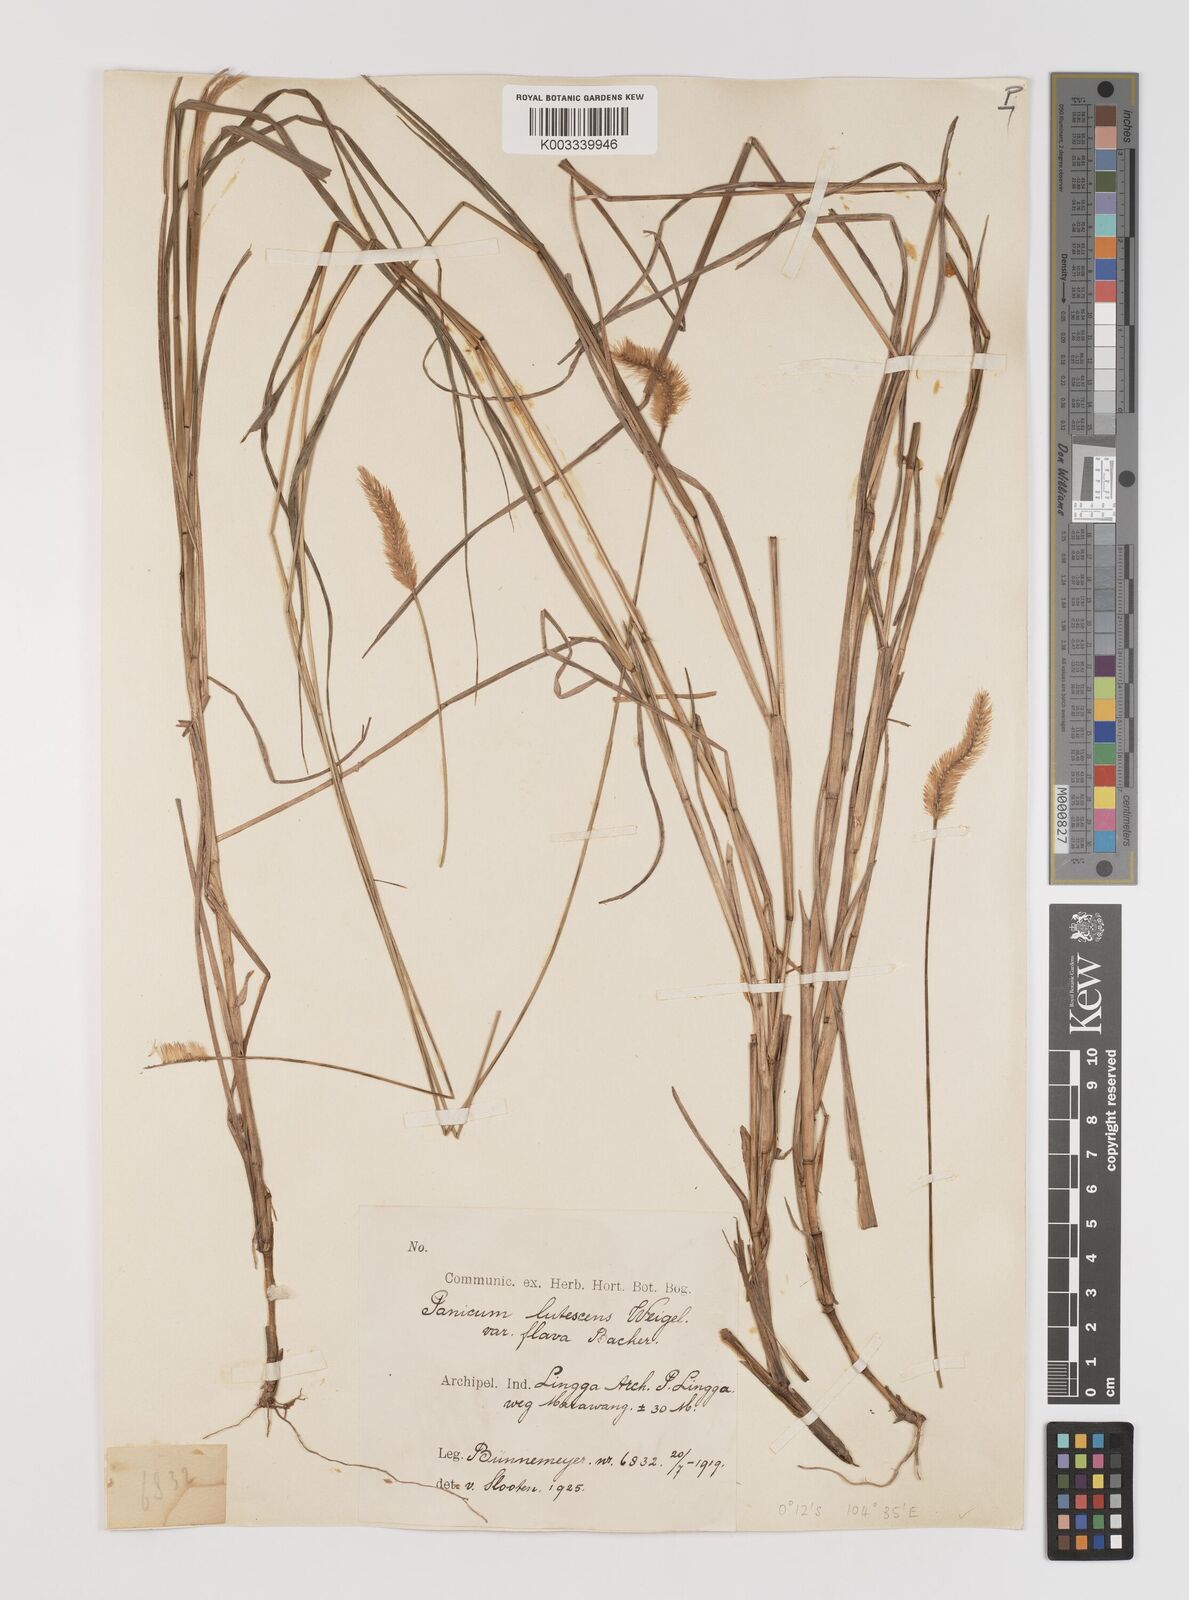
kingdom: Plantae
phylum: Tracheophyta
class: Liliopsida
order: Poales
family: Poaceae
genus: Setaria
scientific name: Setaria parviflora
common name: Knotroot bristle-grass
